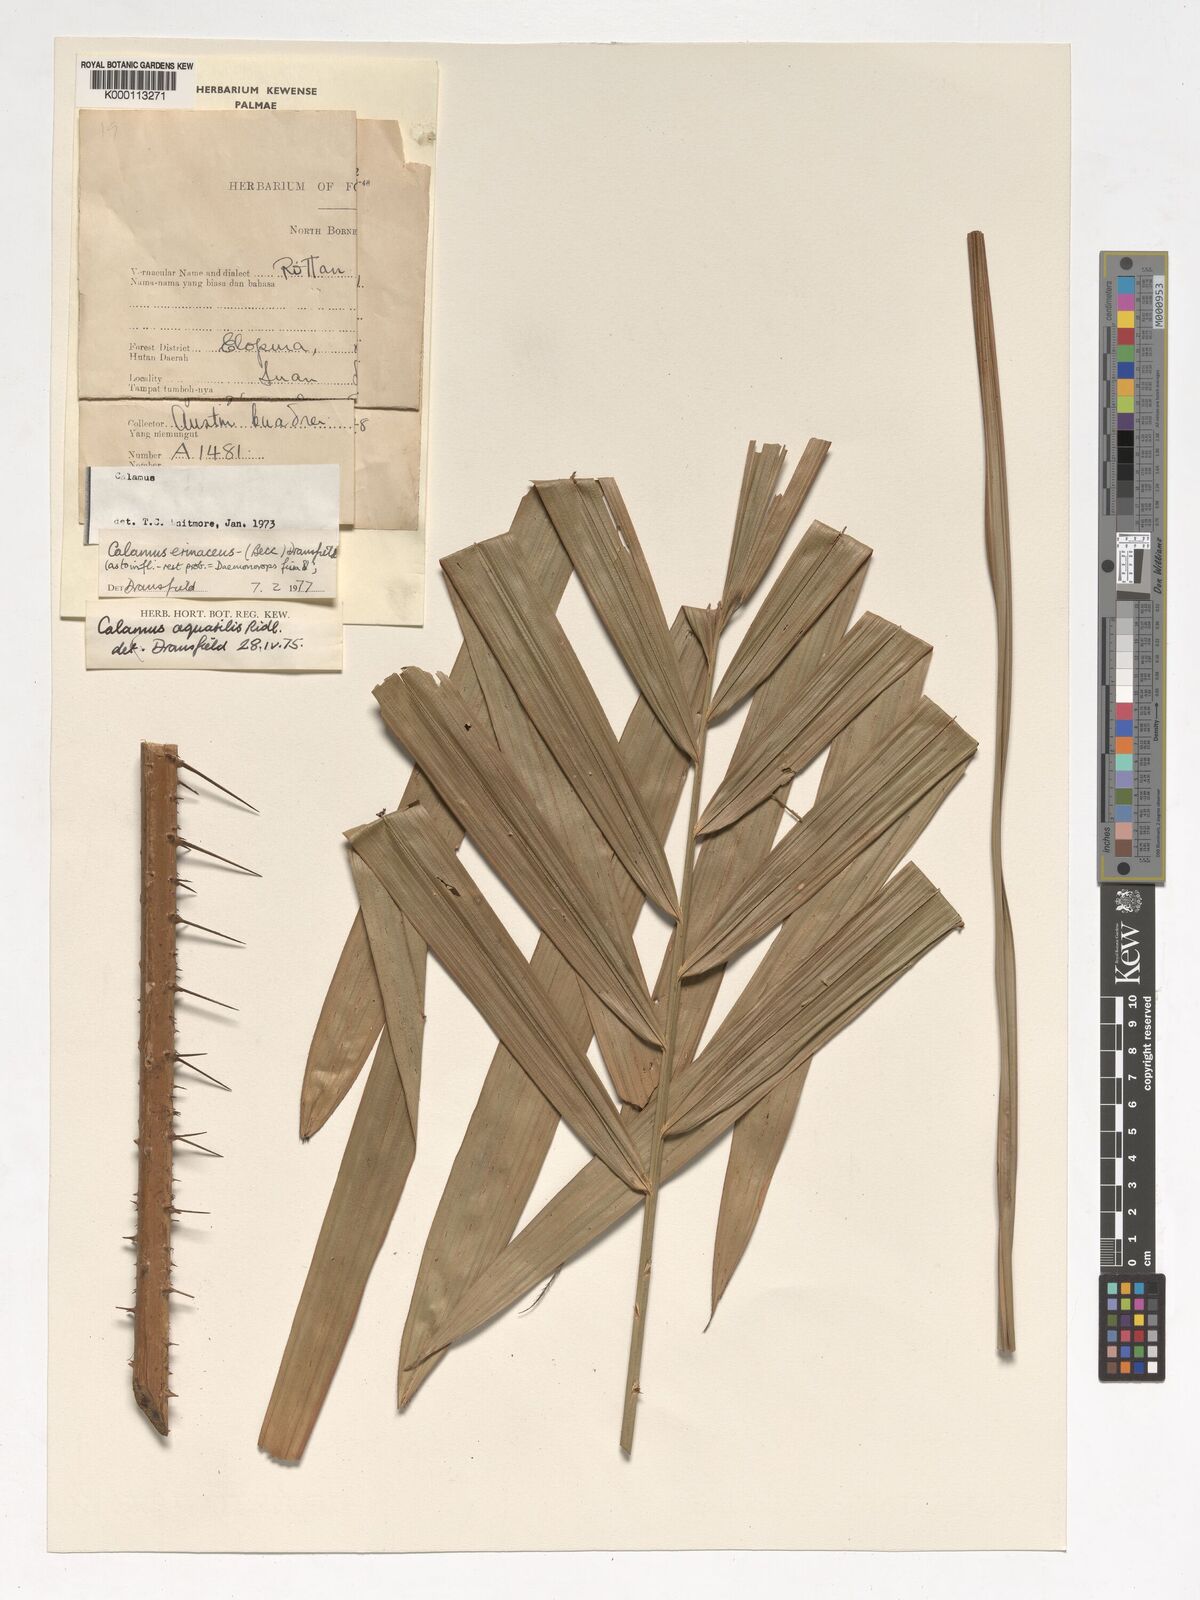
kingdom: Plantae
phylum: Tracheophyta
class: Liliopsida
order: Arecales
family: Arecaceae
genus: Calamus
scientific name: Calamus
